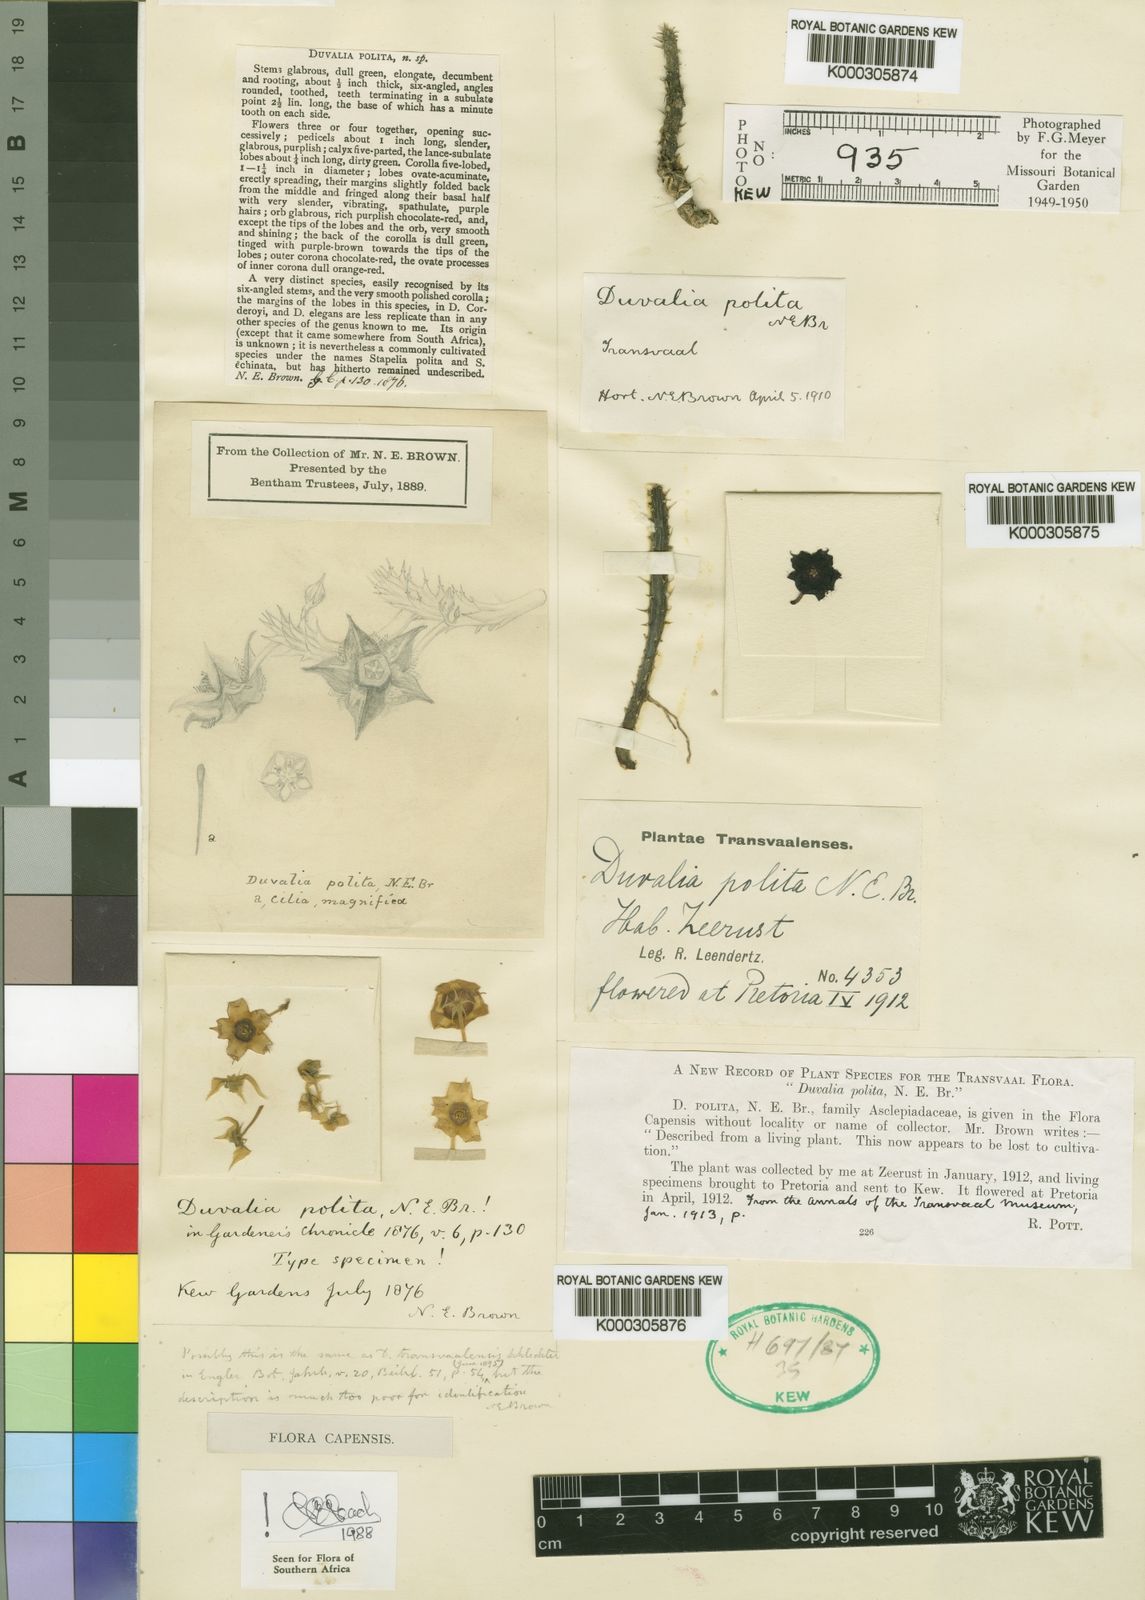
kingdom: Plantae
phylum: Tracheophyta
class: Magnoliopsida
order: Gentianales
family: Apocynaceae
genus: Ceropegia
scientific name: Ceropegia polita
